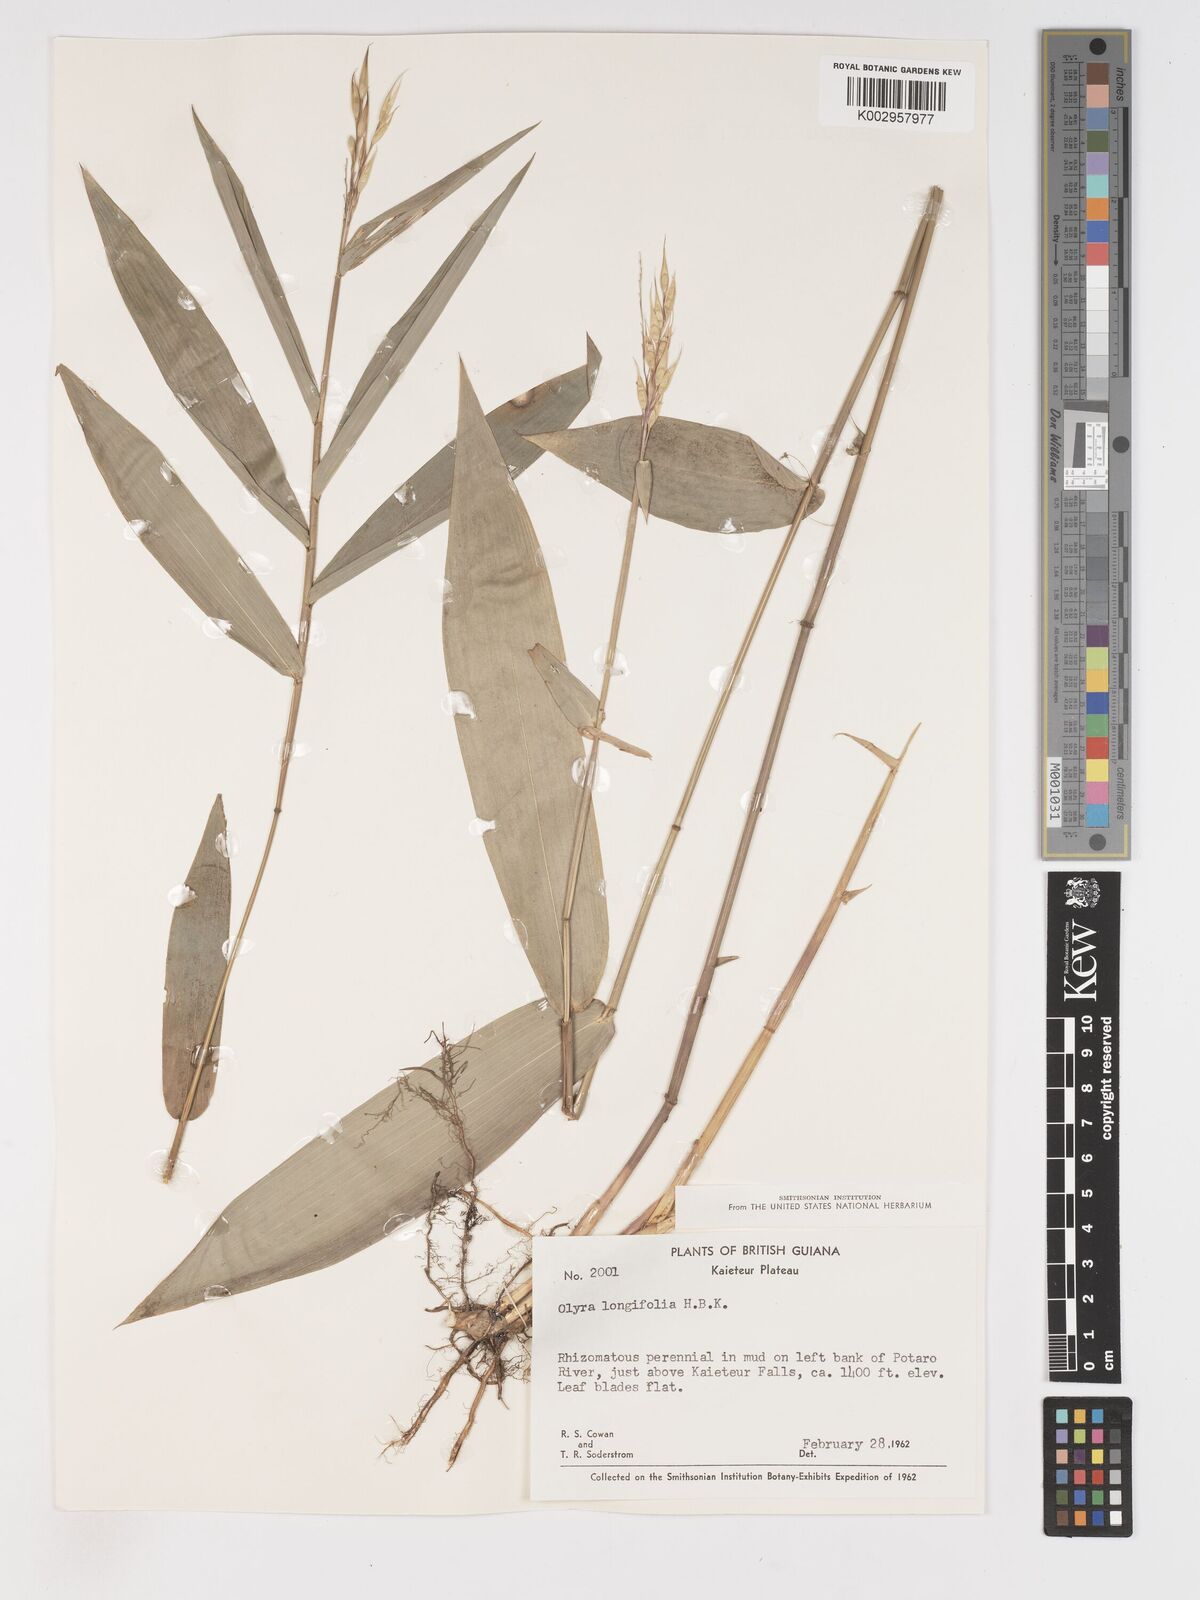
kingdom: Plantae
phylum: Tracheophyta
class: Liliopsida
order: Poales
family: Poaceae
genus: Olyra
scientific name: Olyra longifolia
